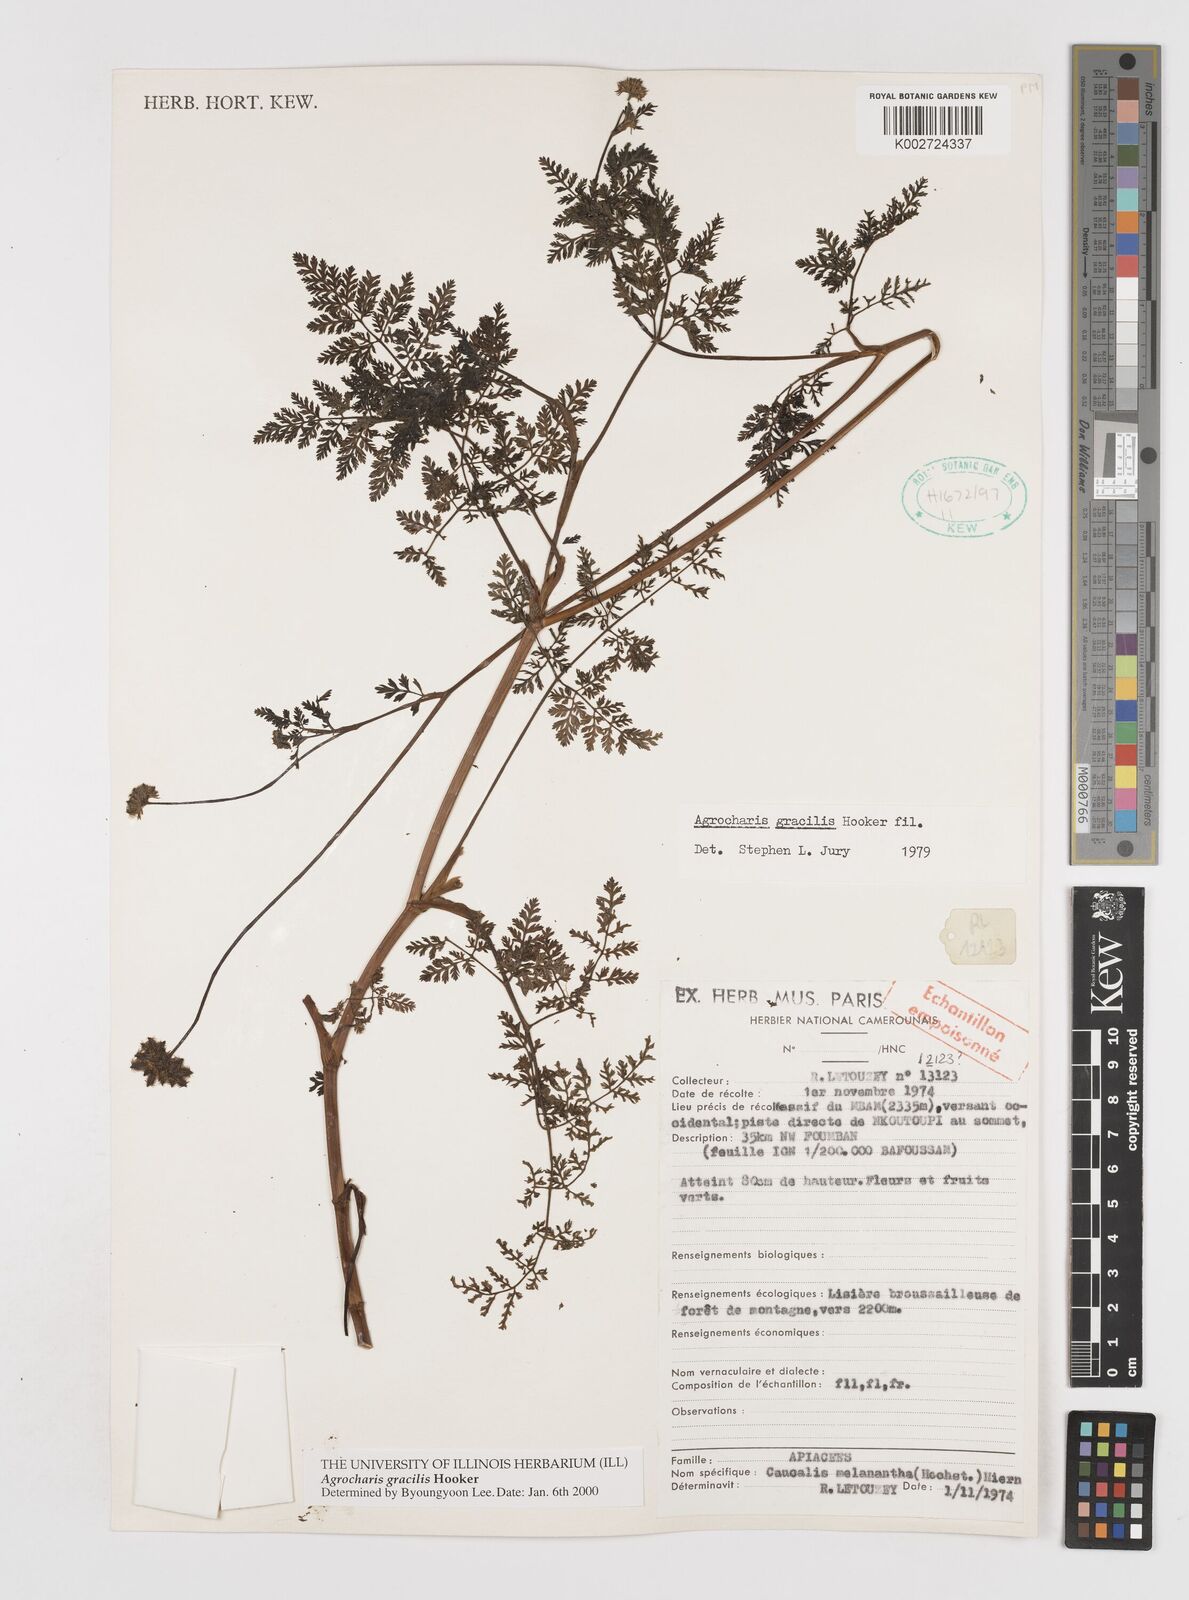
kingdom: Plantae
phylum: Tracheophyta
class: Magnoliopsida
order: Apiales
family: Apiaceae
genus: Daucus
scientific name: Daucus
